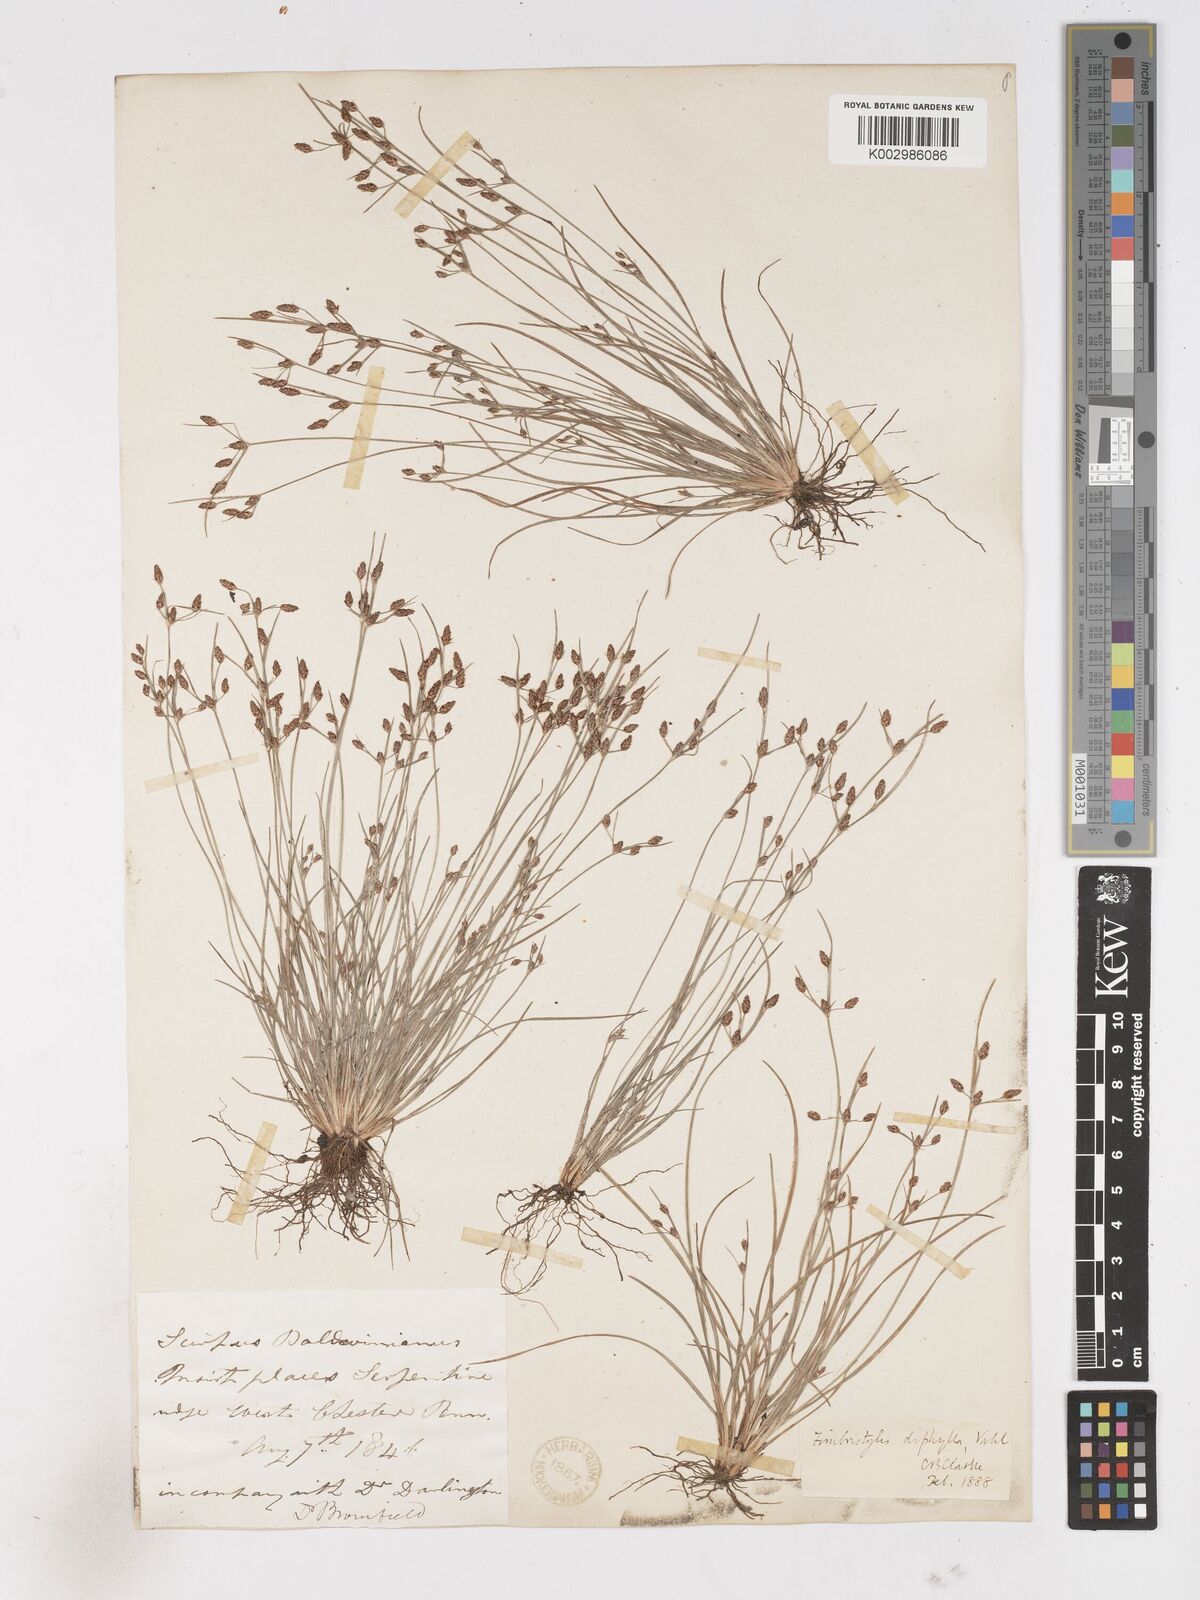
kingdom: Plantae
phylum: Tracheophyta
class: Liliopsida
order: Poales
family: Cyperaceae
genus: Fimbristylis
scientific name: Fimbristylis dichotoma
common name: Forked fimbry
